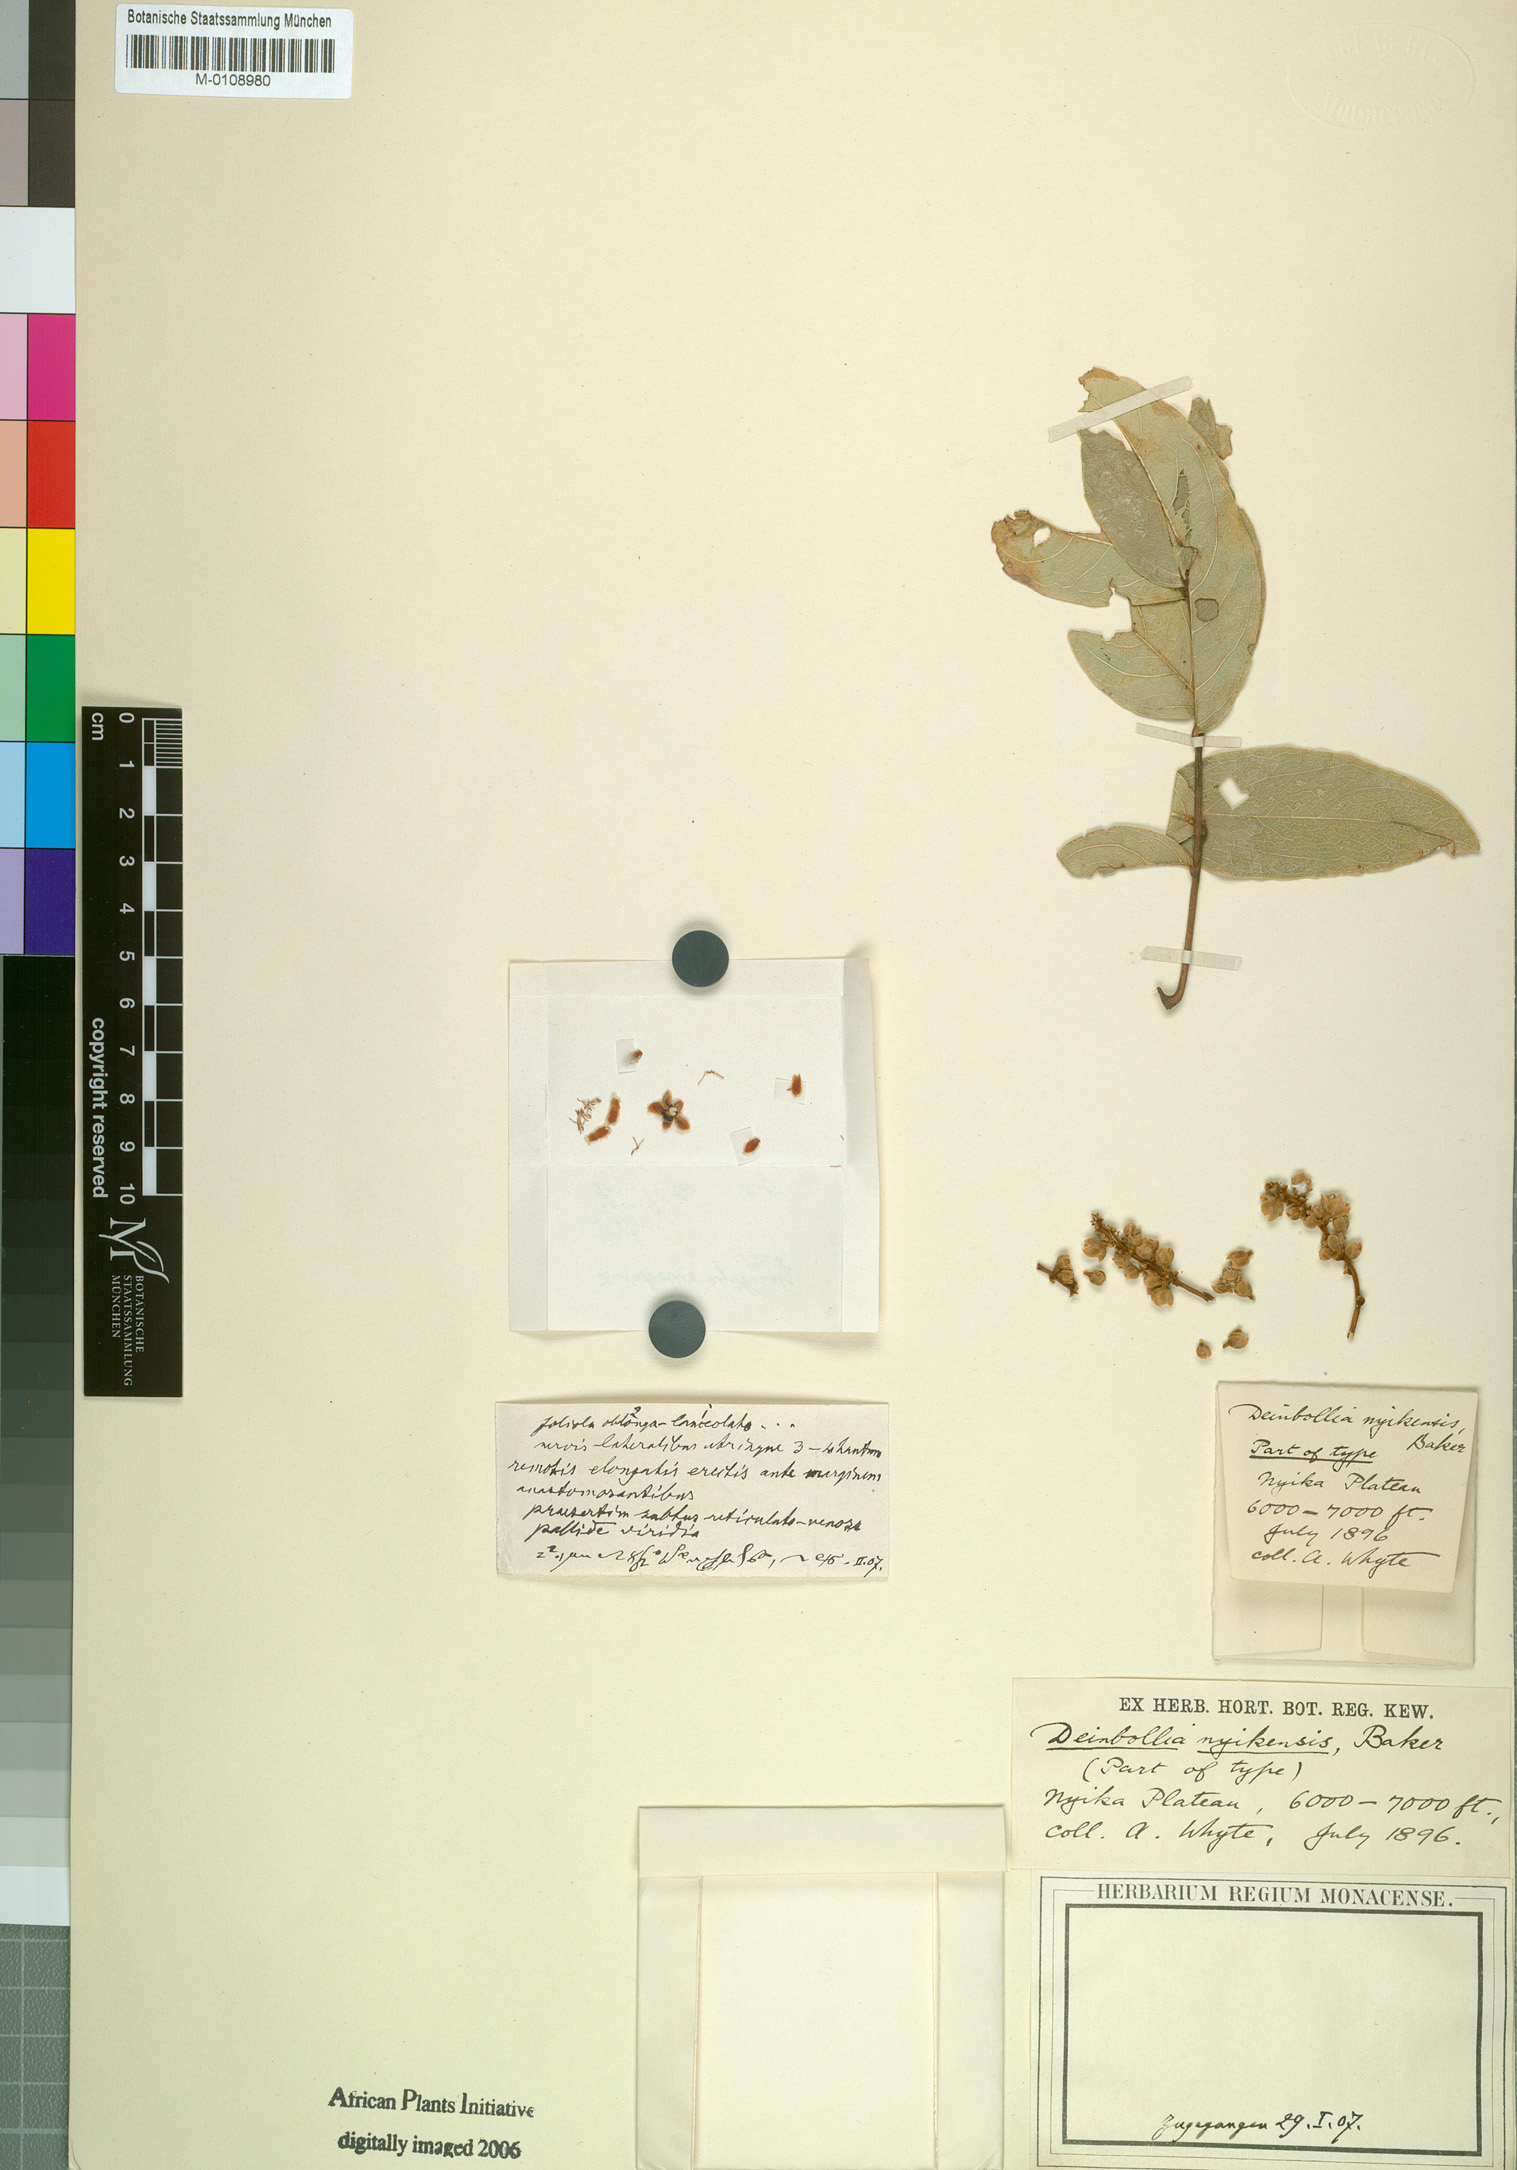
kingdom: Plantae
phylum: Tracheophyta
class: Magnoliopsida
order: Sapindales
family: Sapindaceae
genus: Deinbollia
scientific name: Deinbollia borbonica
